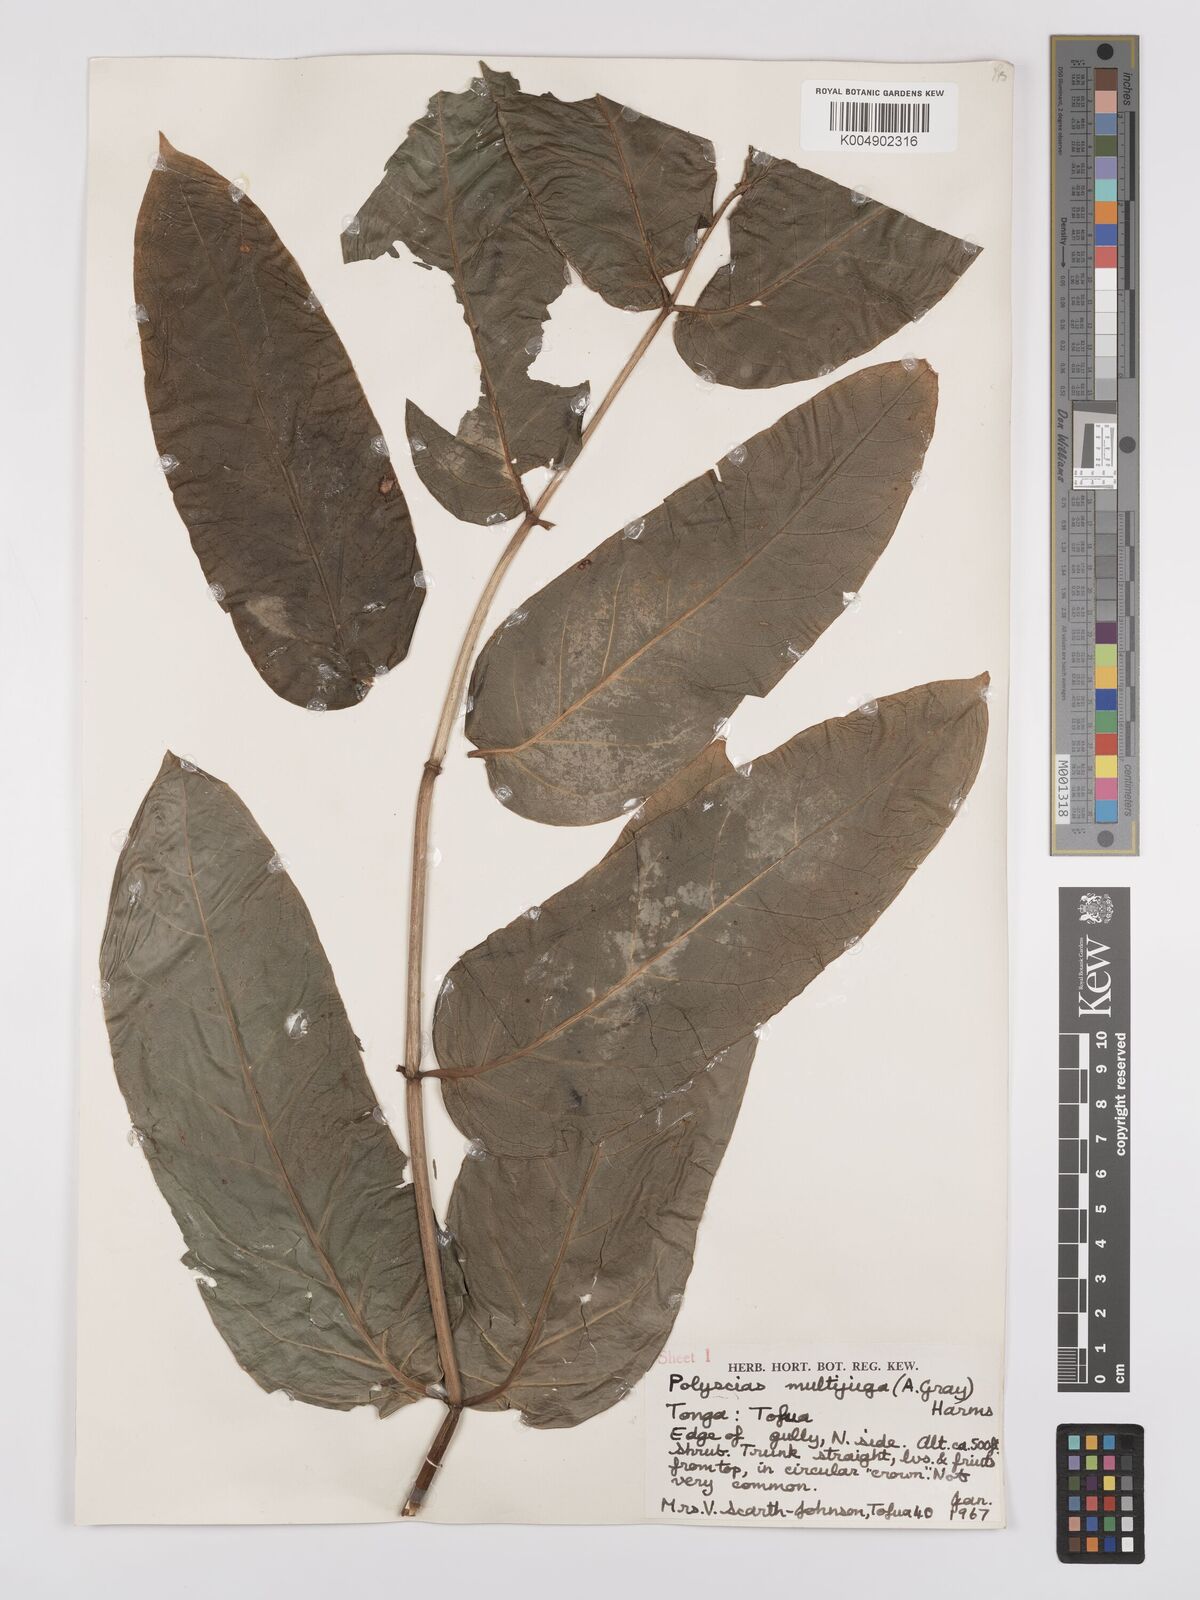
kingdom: Plantae
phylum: Tracheophyta
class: Magnoliopsida
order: Apiales
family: Araliaceae
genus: Polyscias
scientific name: Polyscias multijuga
